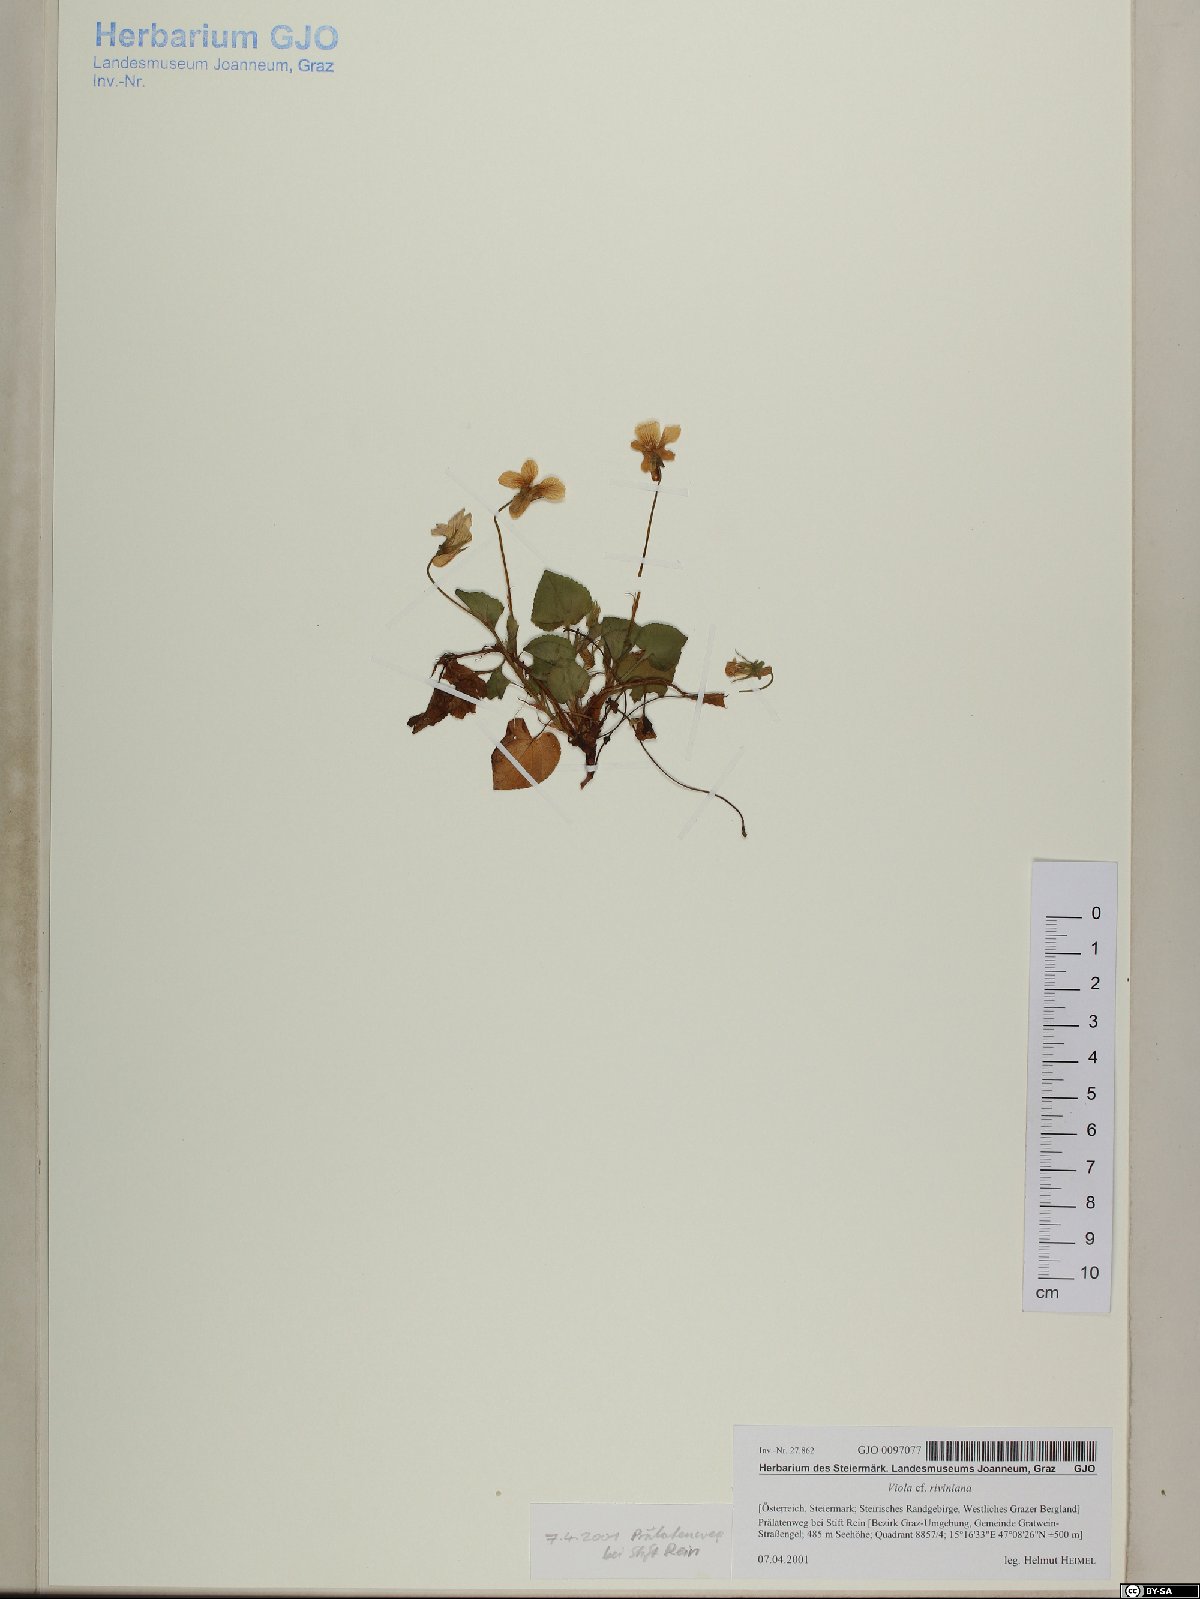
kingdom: Plantae
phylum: Tracheophyta
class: Magnoliopsida
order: Malpighiales
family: Violaceae
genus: Viola
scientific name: Viola riviniana
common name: Common dog-violet
